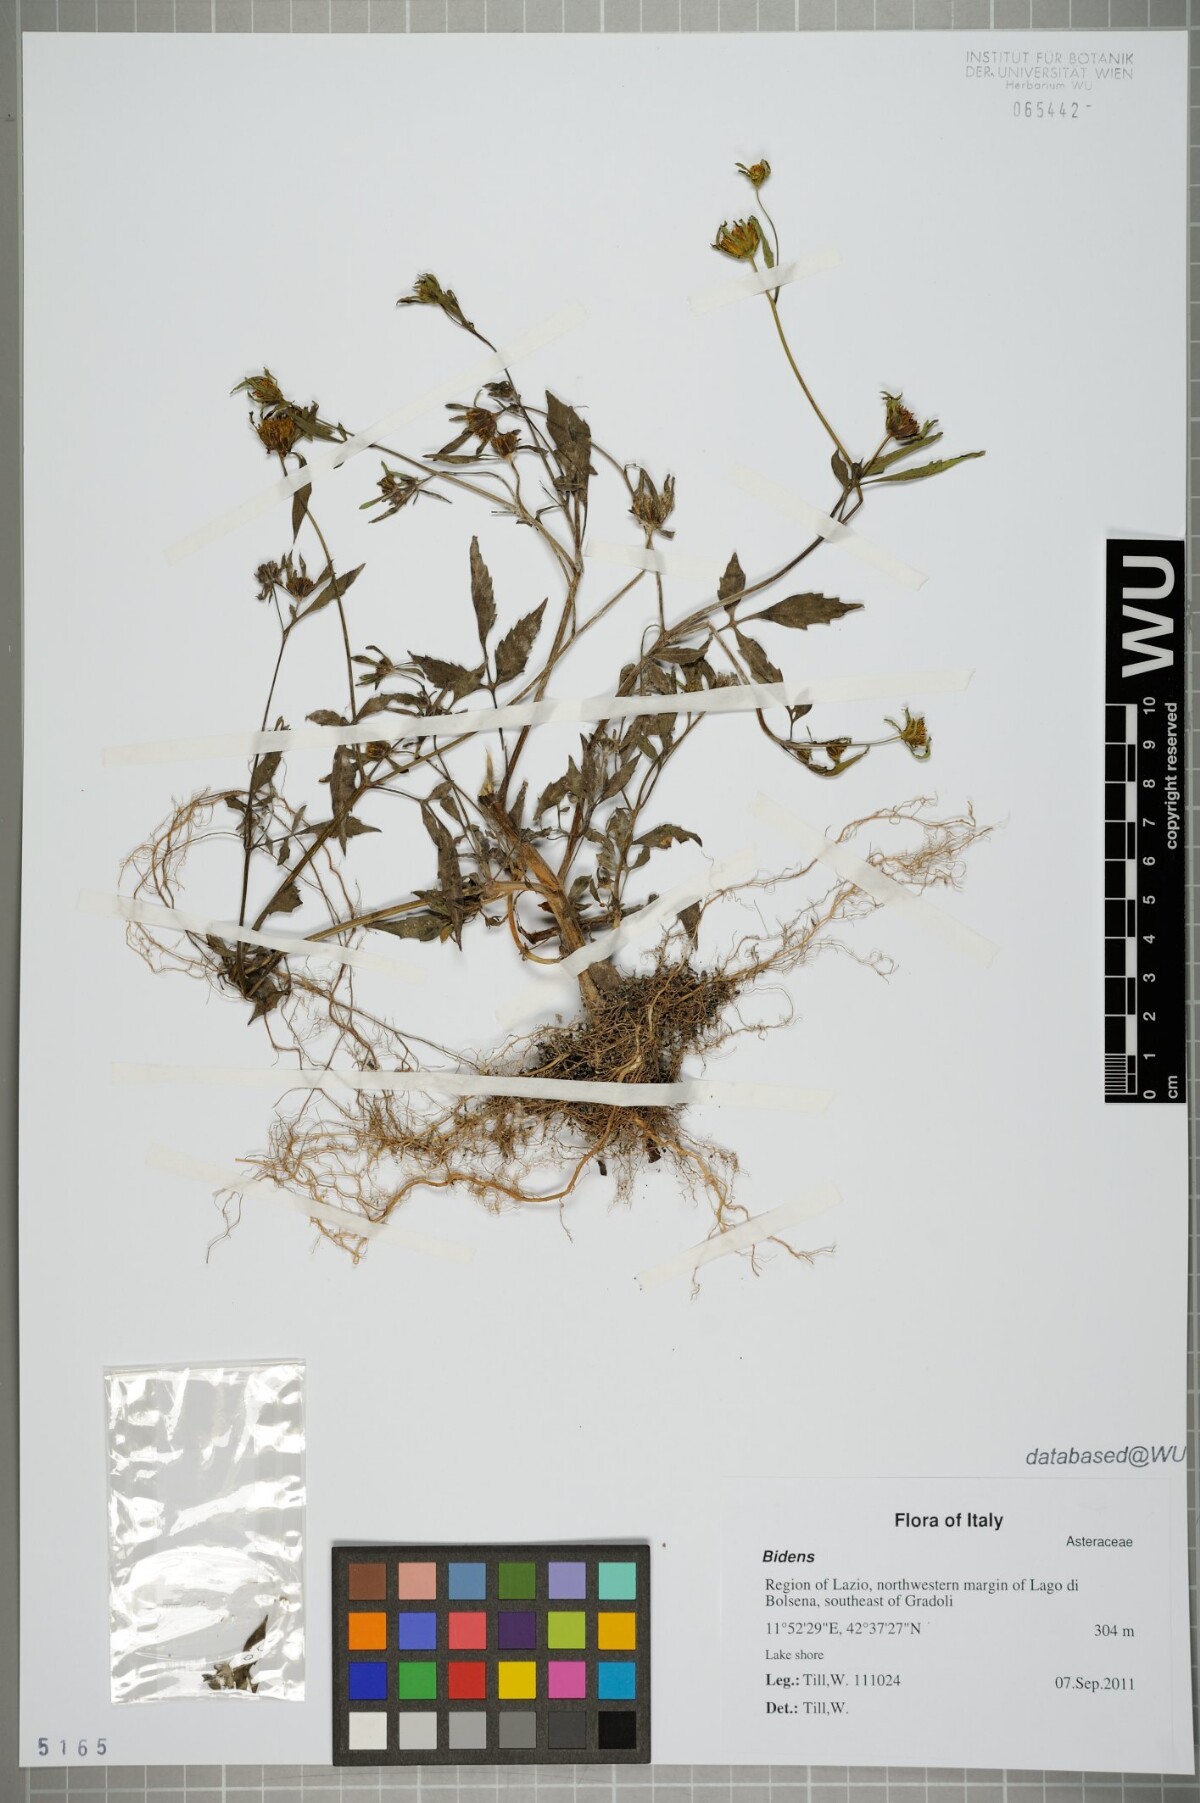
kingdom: Plantae
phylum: Tracheophyta
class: Magnoliopsida
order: Asterales
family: Asteraceae
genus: Bidens
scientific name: Bidens
